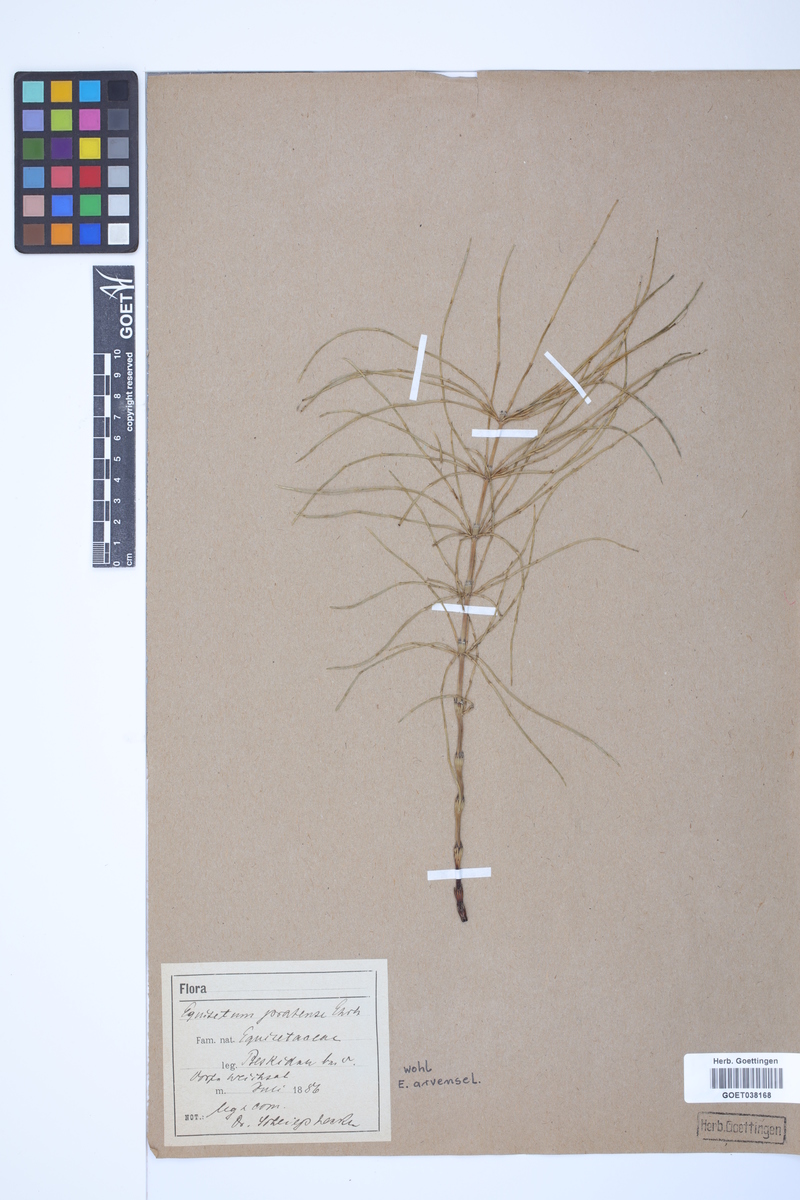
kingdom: Plantae
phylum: Tracheophyta
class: Polypodiopsida
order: Equisetales
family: Equisetaceae
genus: Equisetum
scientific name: Equisetum arvense
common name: Field horsetail
